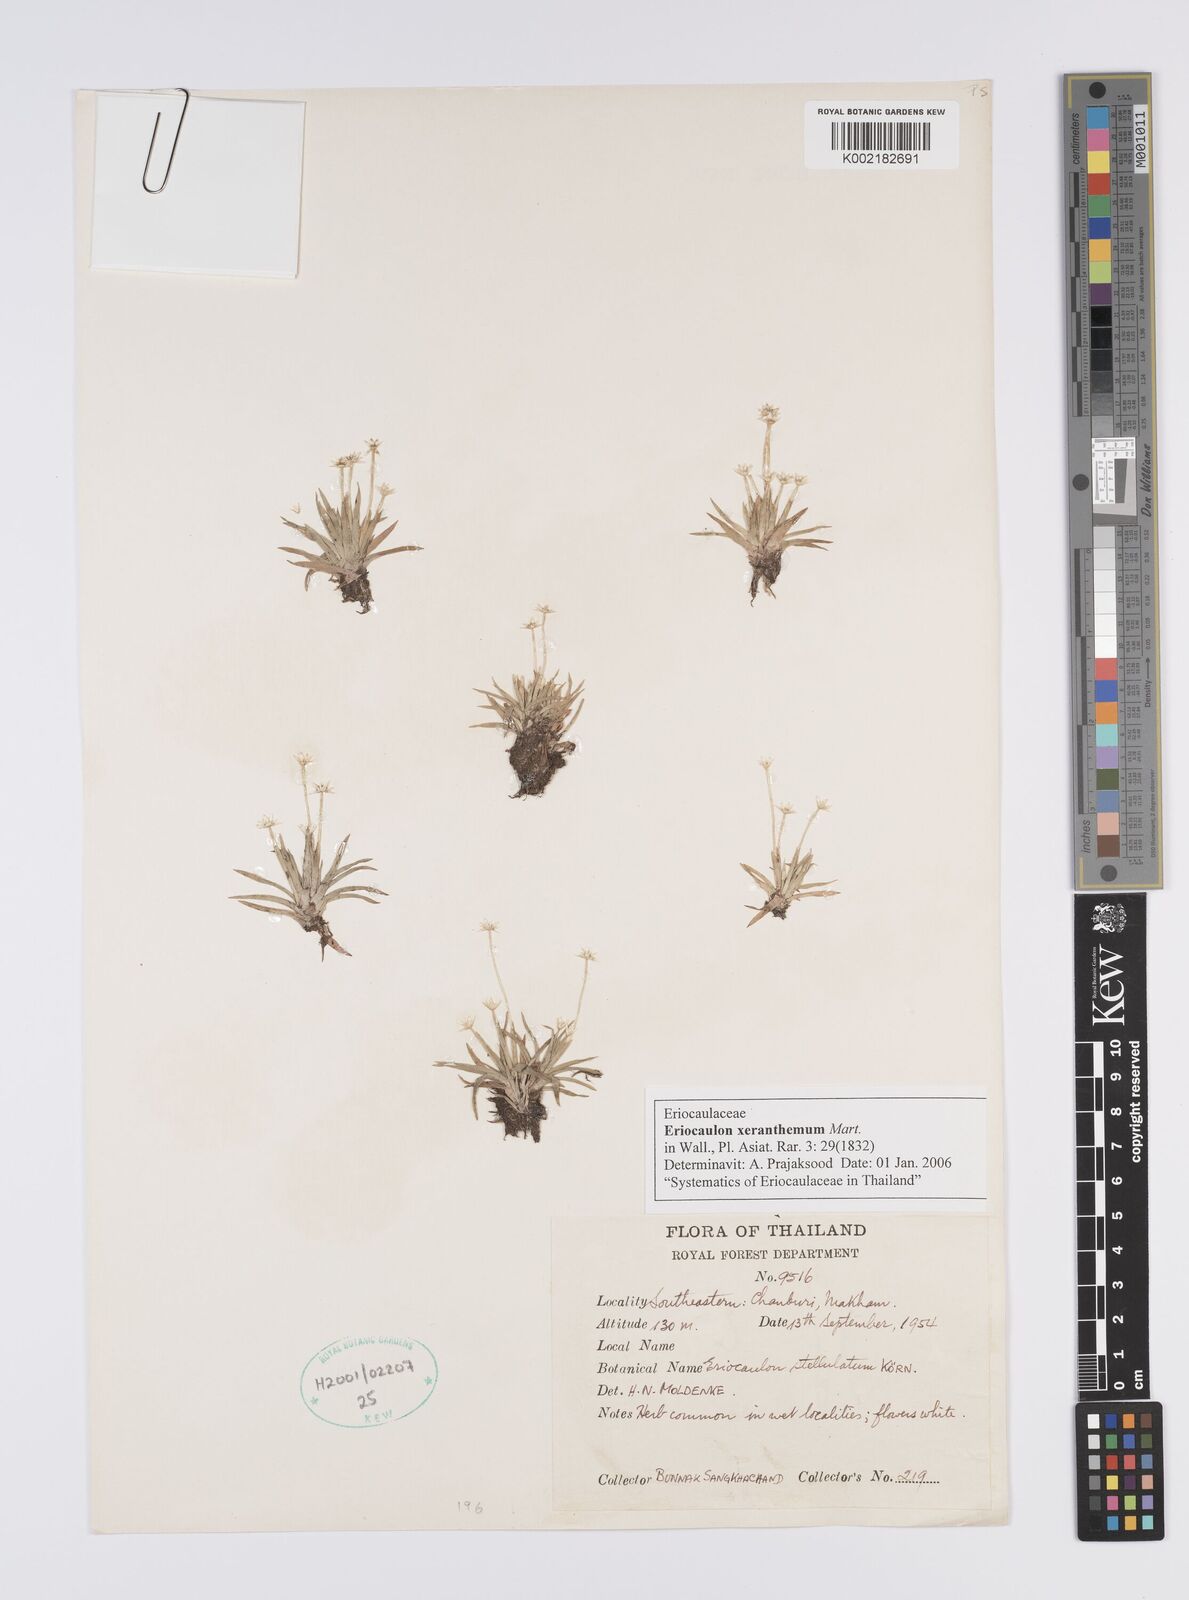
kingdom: Plantae
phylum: Tracheophyta
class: Liliopsida
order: Poales
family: Eriocaulaceae
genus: Eriocaulon
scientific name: Eriocaulon xeranthemum
